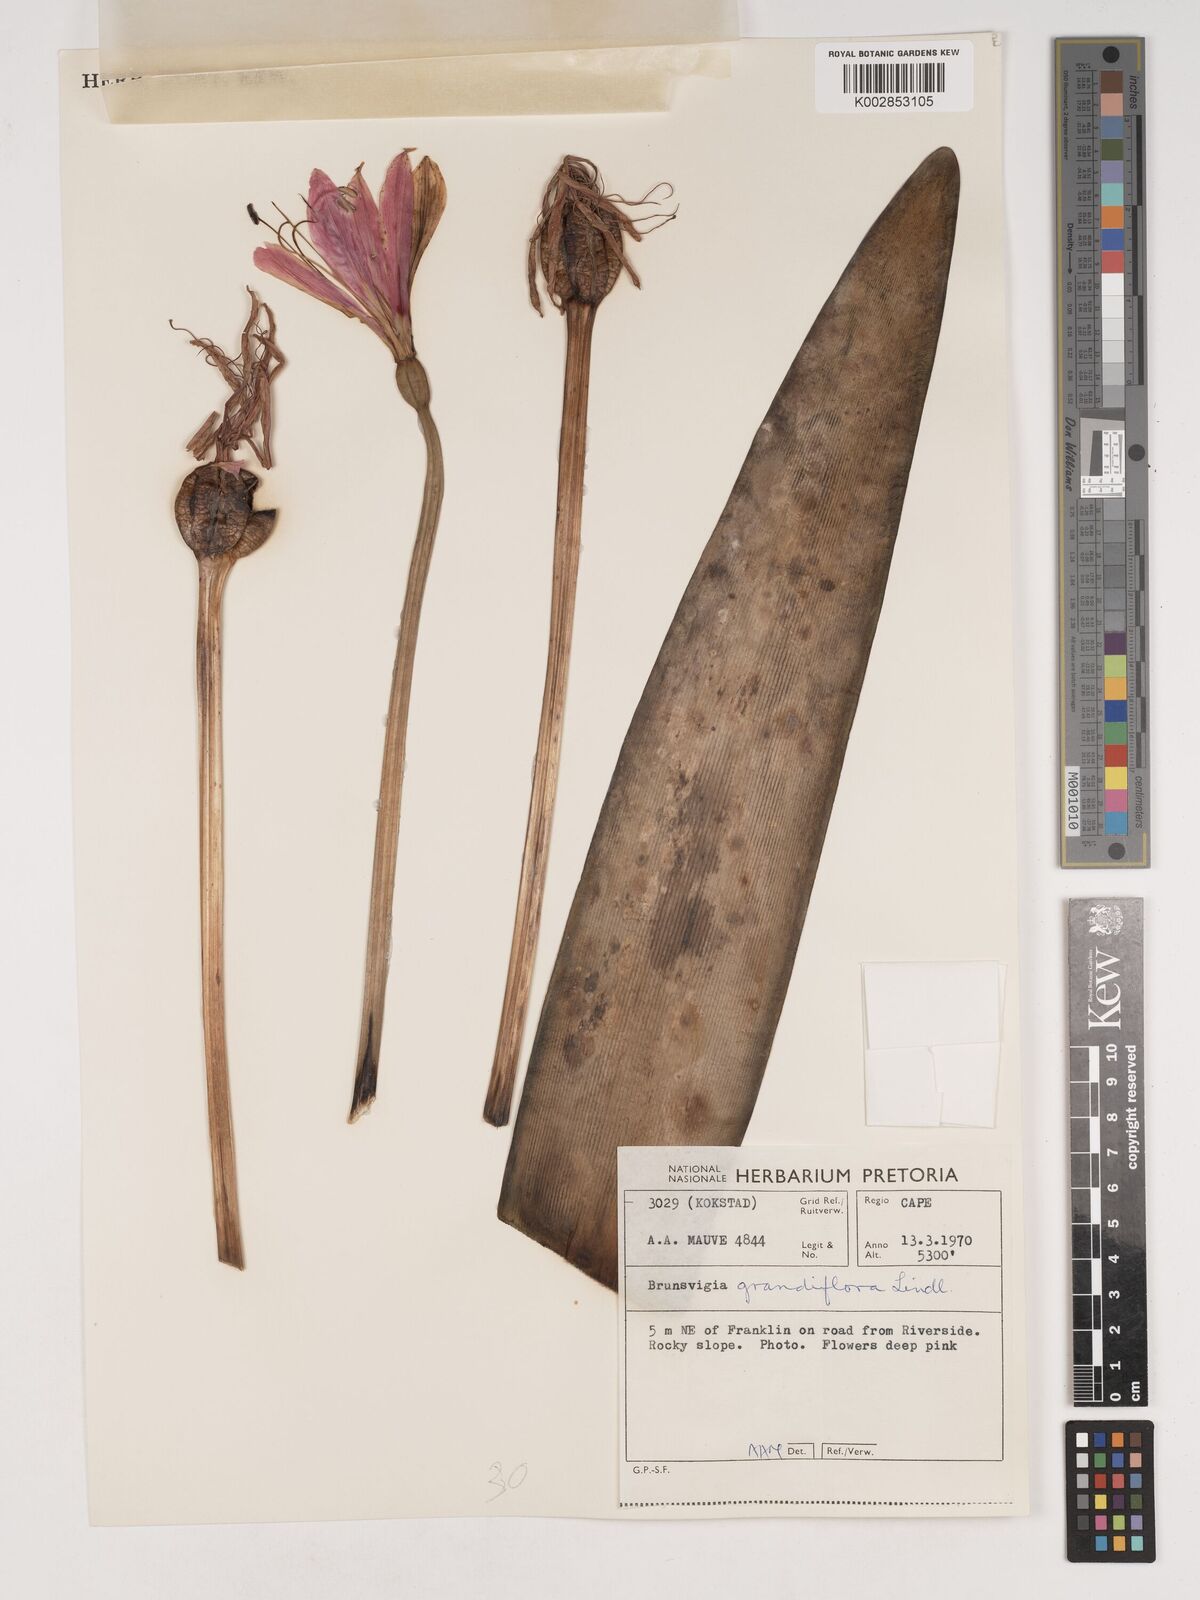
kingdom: Plantae
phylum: Tracheophyta
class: Liliopsida
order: Asparagales
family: Amaryllidaceae
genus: Brunsvigia
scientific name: Brunsvigia grandiflora
